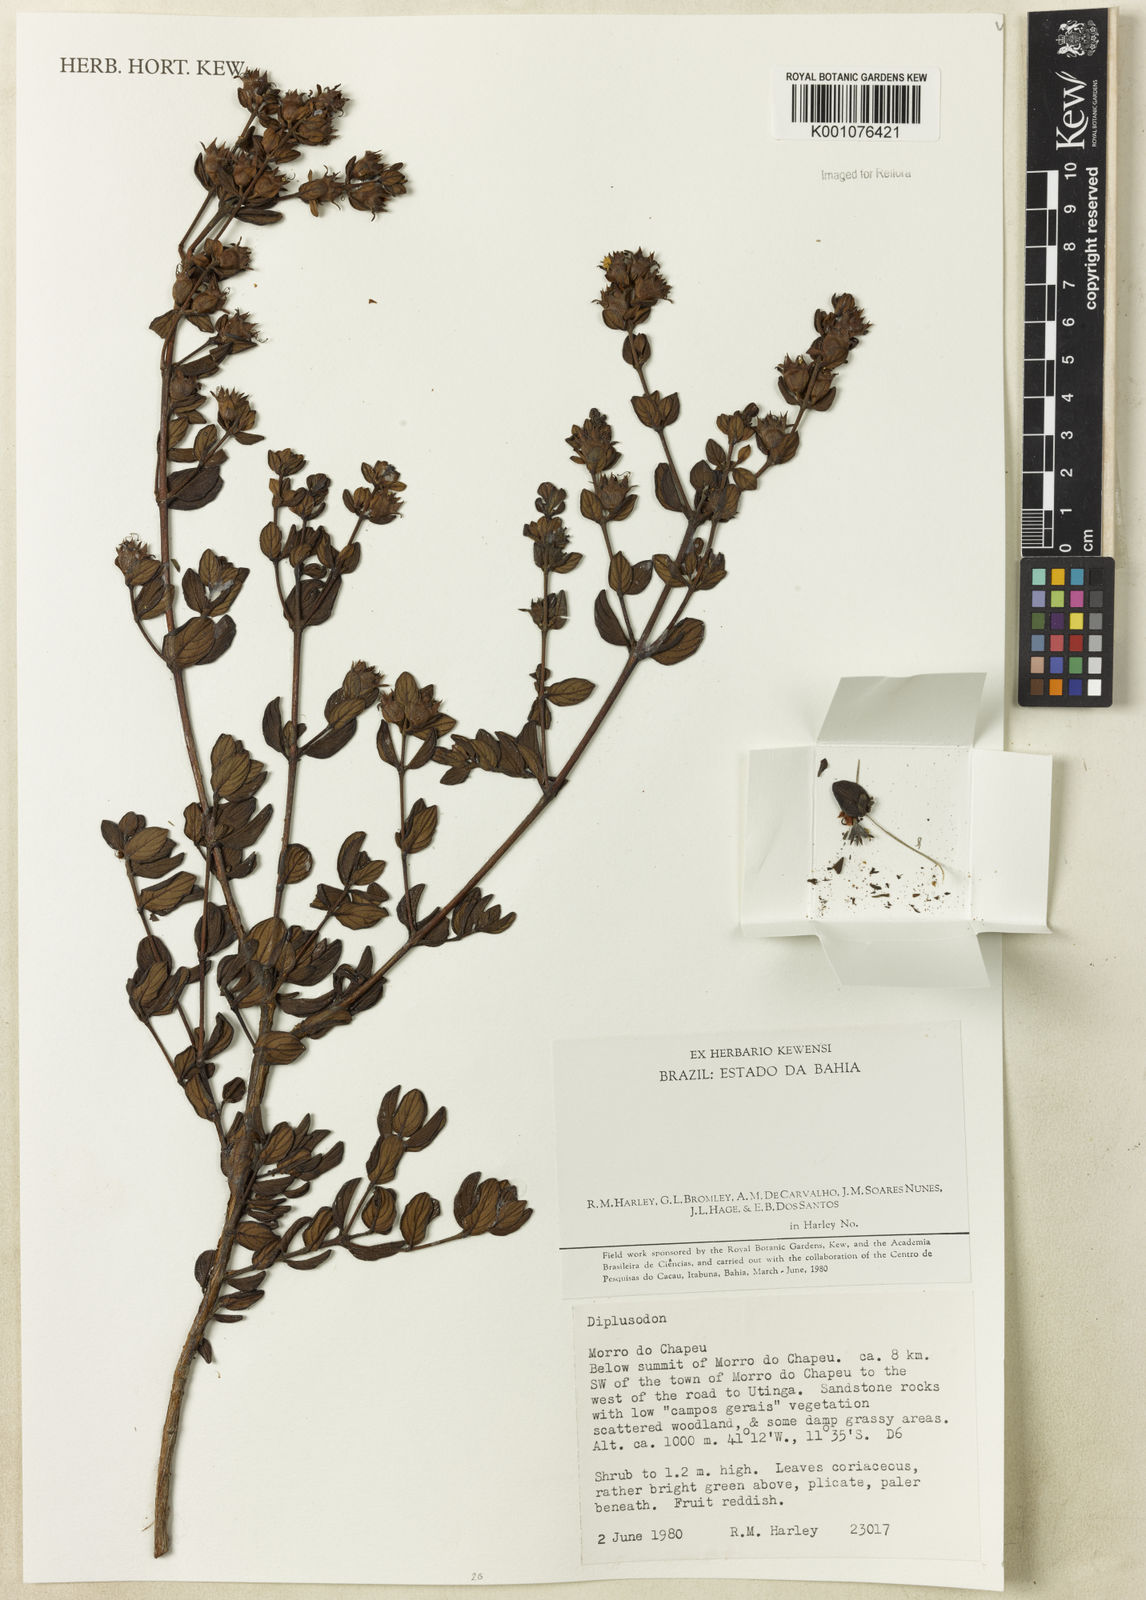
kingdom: Plantae
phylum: Tracheophyta
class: Magnoliopsida
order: Myrtales
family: Lythraceae
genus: Diplusodon
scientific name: Diplusodon
